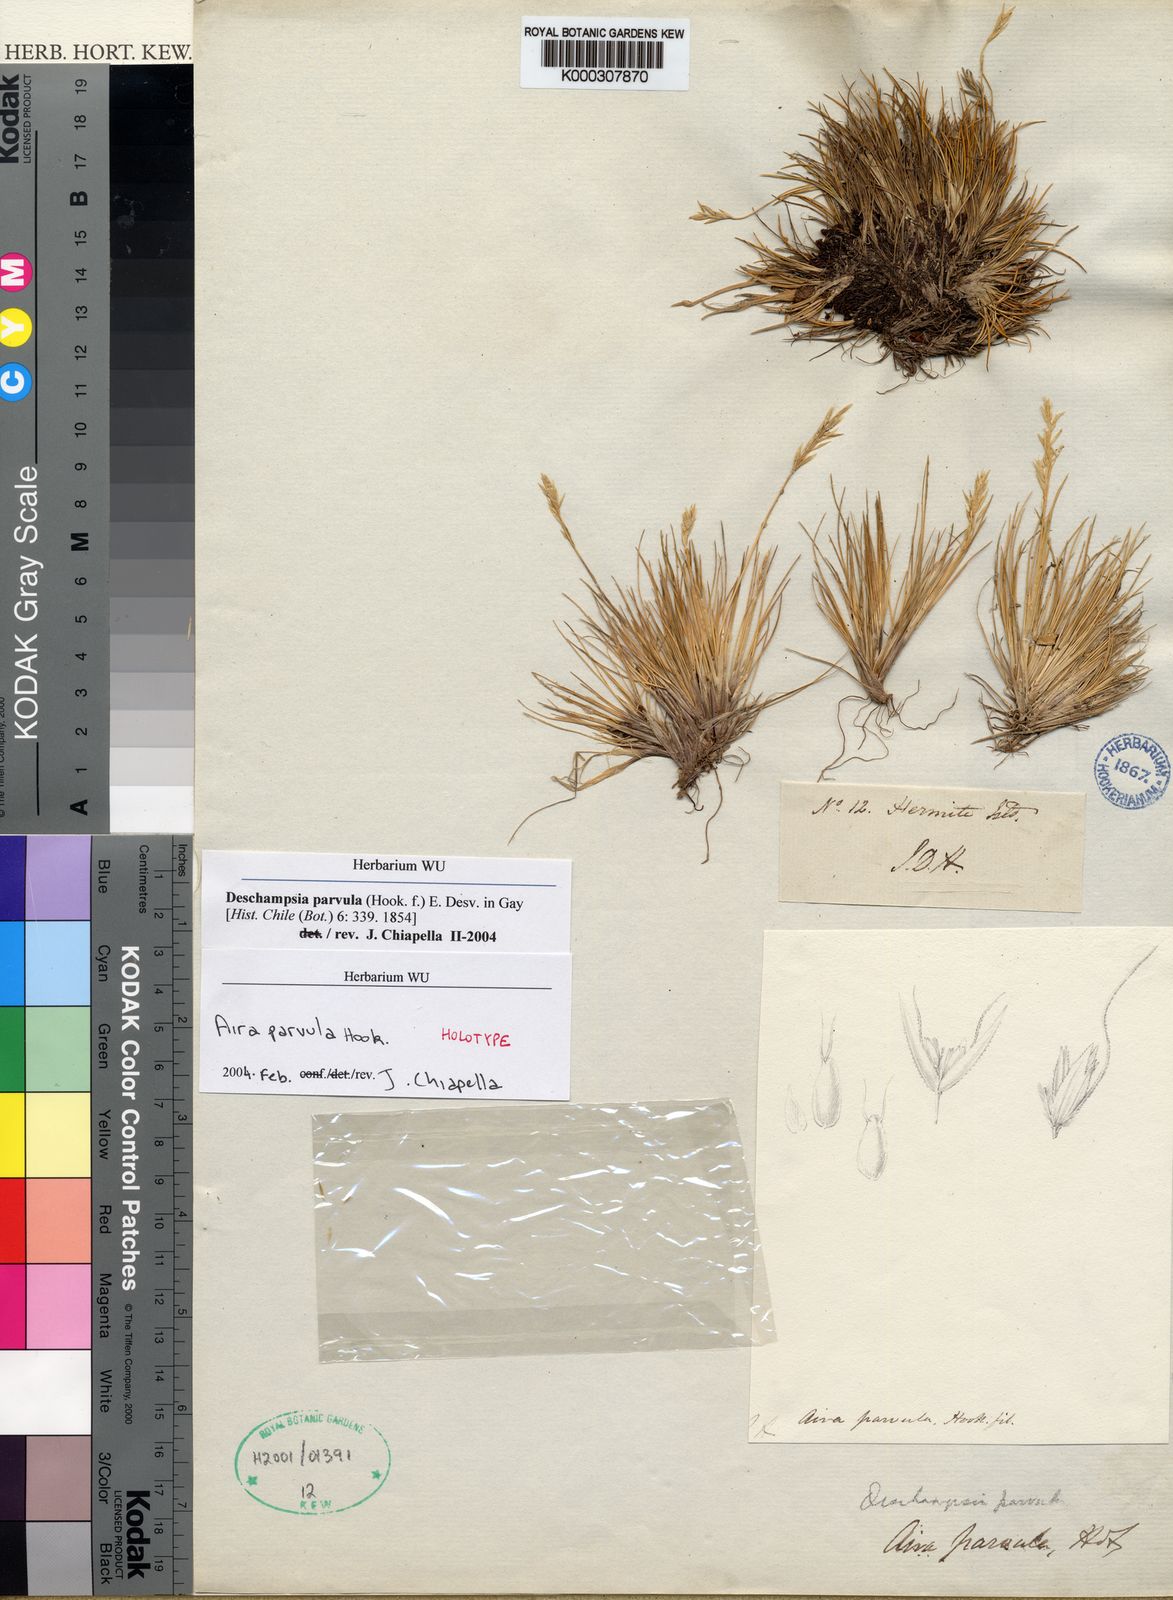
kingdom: Plantae
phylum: Tracheophyta
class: Liliopsida
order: Poales
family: Poaceae
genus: Deschampsia
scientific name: Deschampsia parvula
